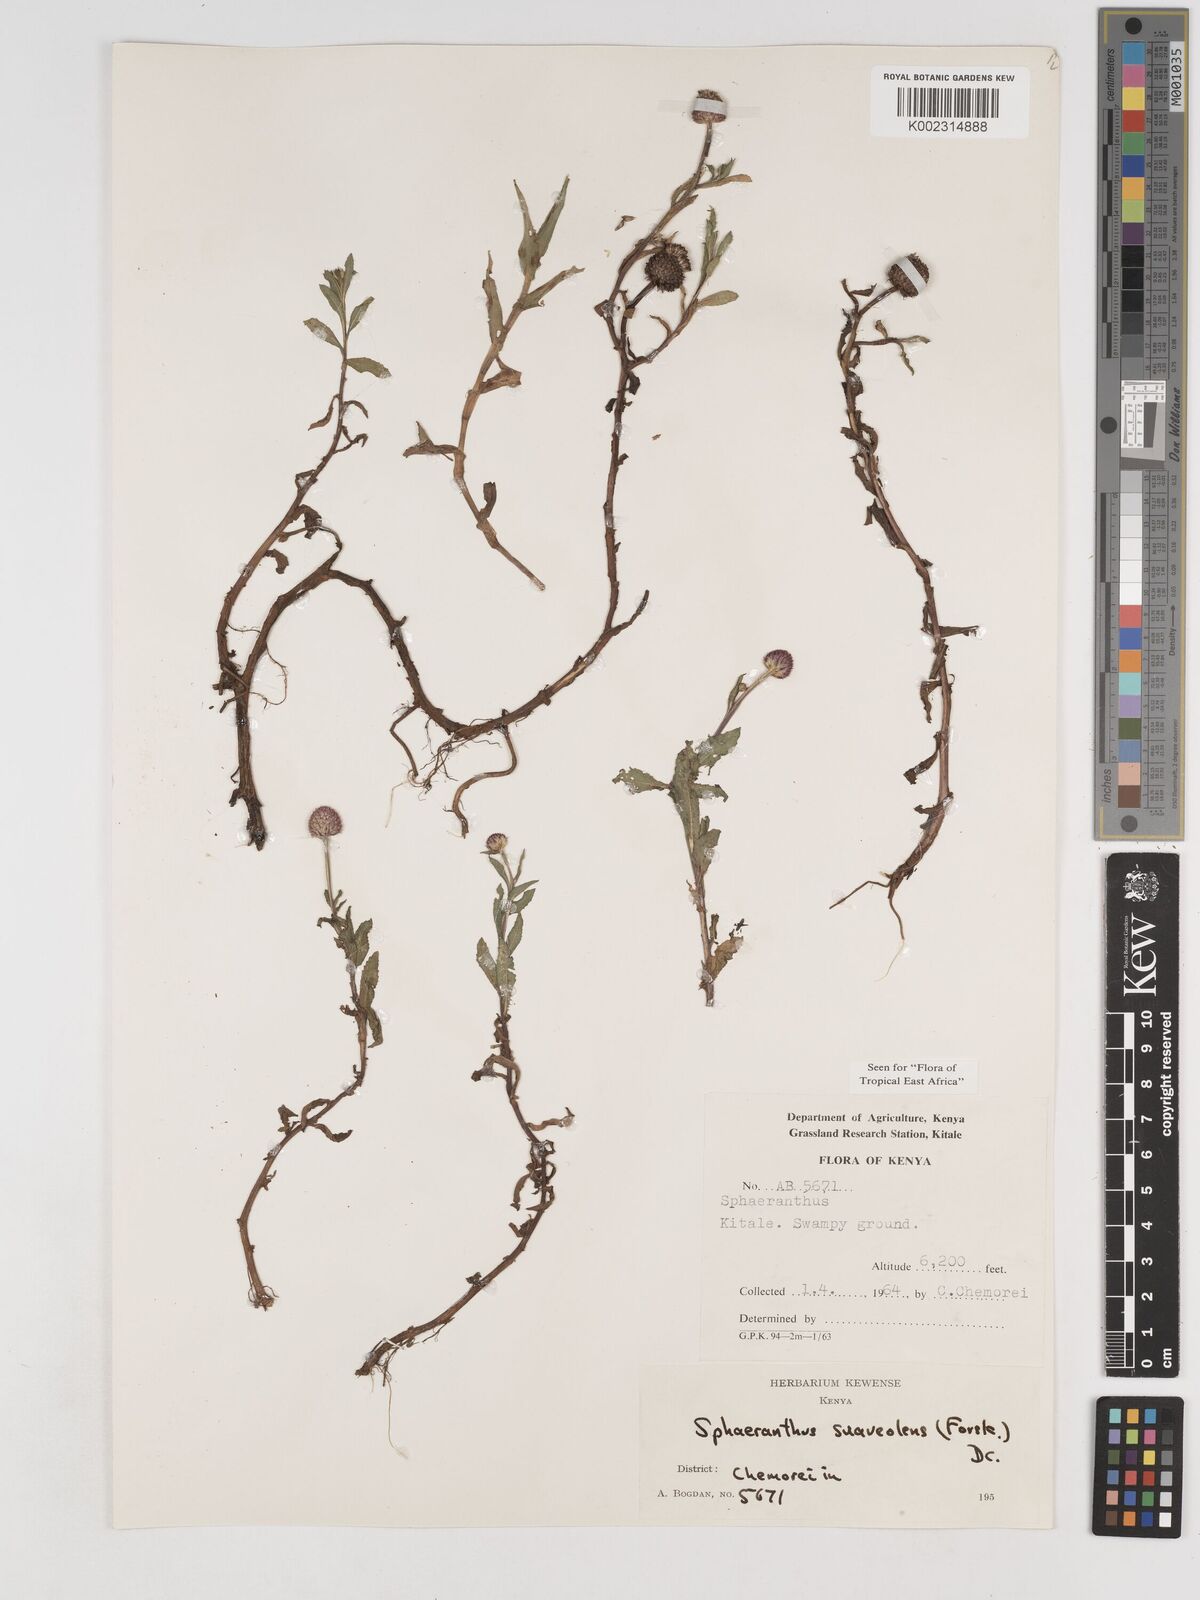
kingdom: Plantae
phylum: Tracheophyta
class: Magnoliopsida
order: Asterales
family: Asteraceae
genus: Sphaeranthus
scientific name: Sphaeranthus suaveolens
